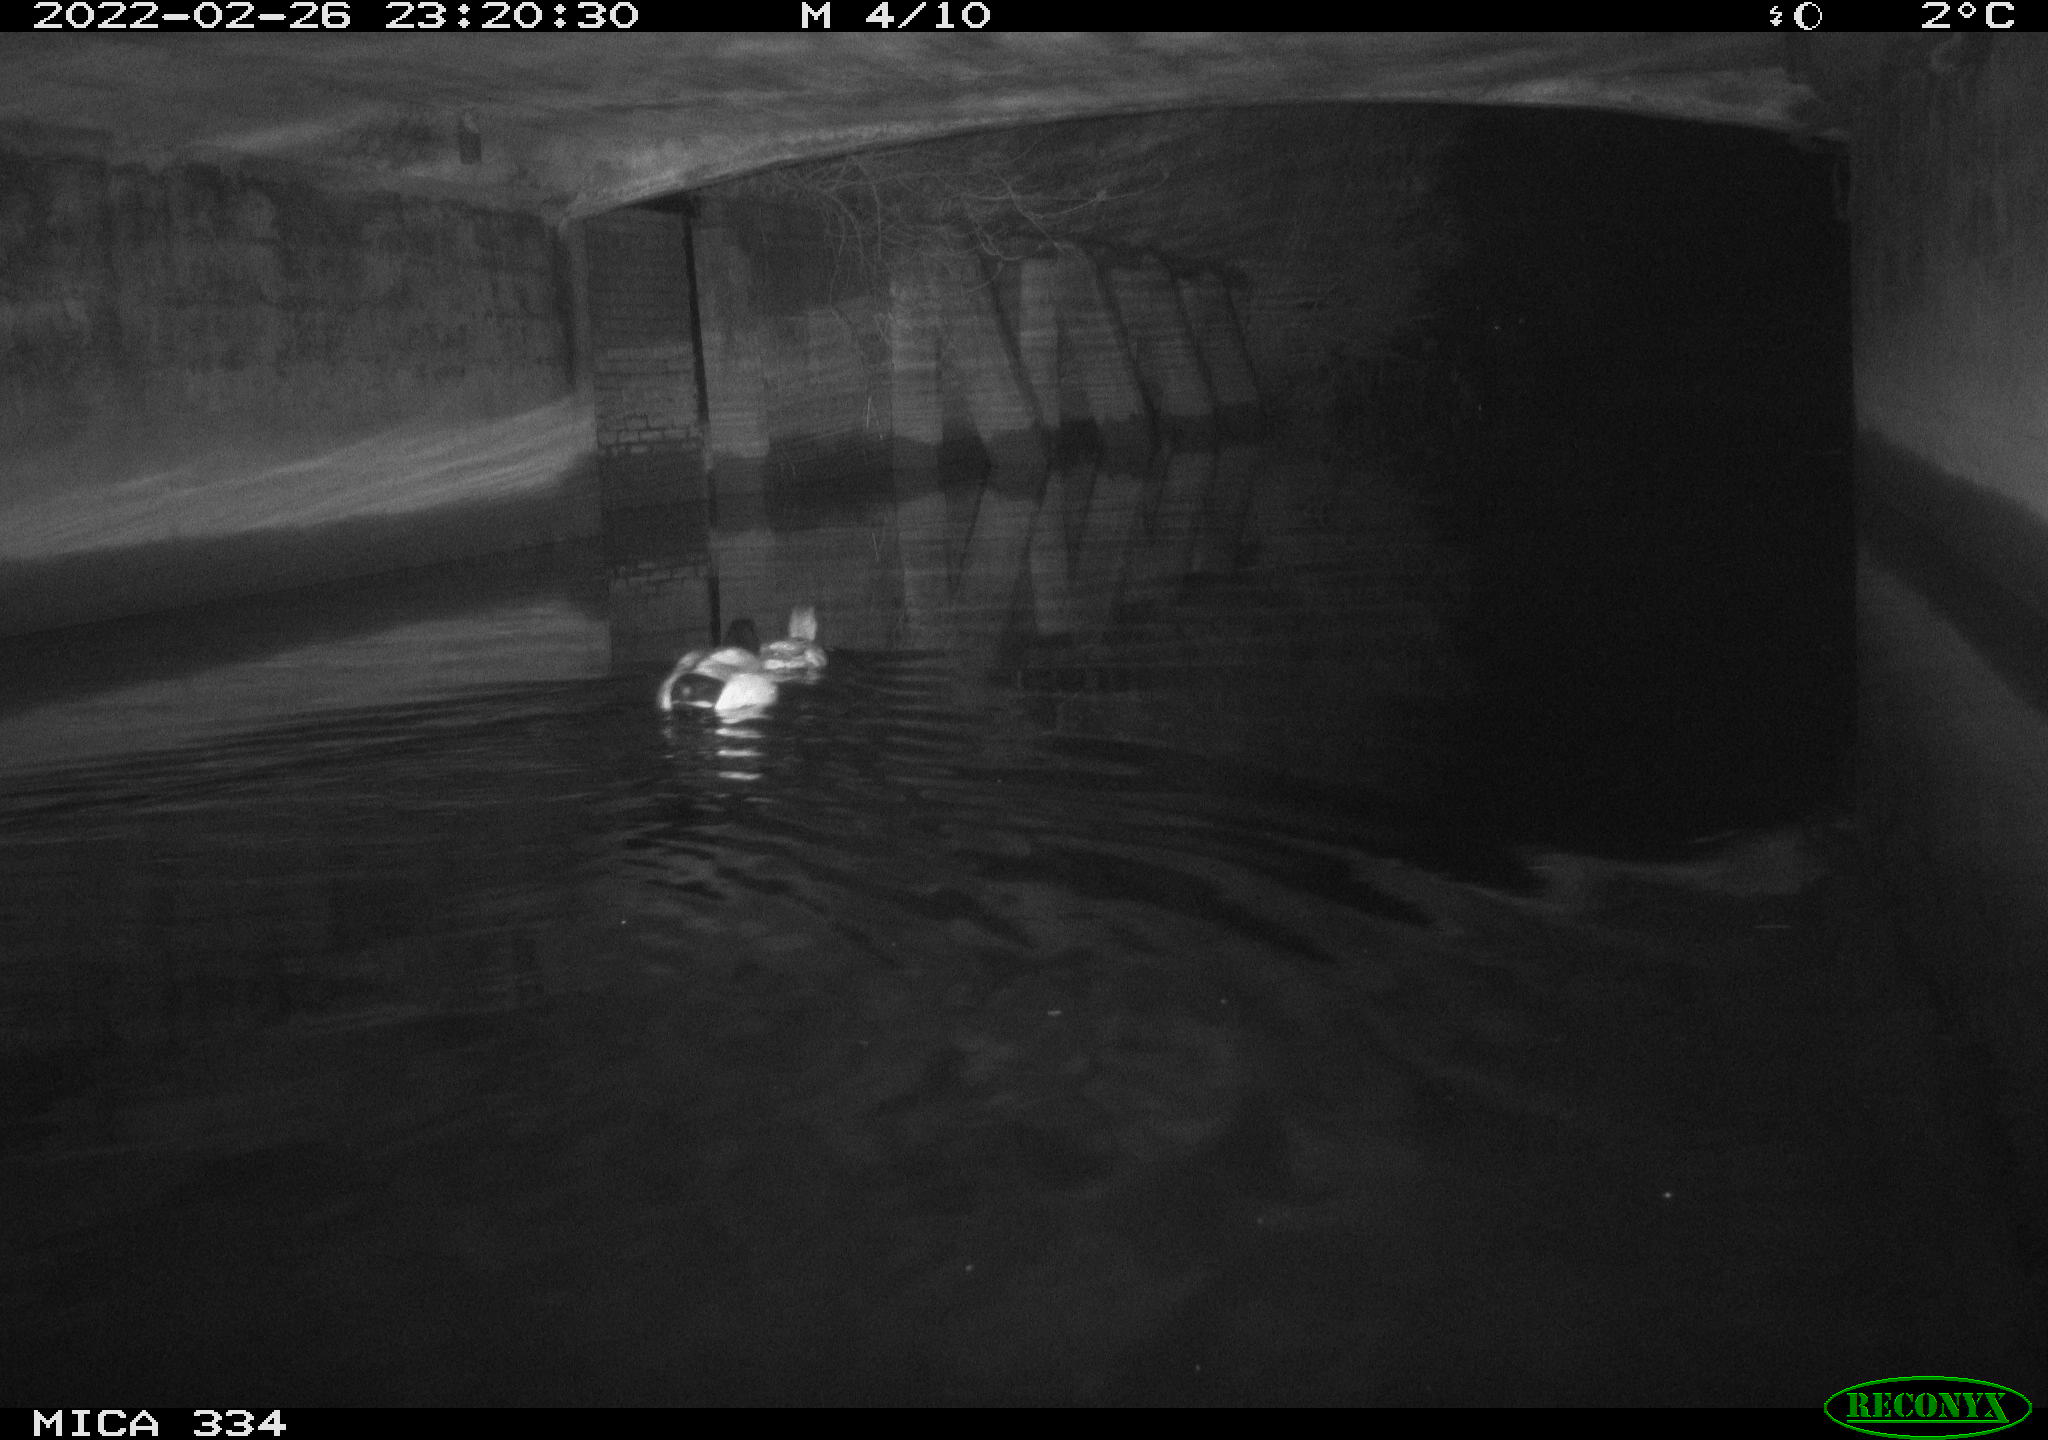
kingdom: Animalia
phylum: Chordata
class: Aves
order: Anseriformes
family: Anatidae
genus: Anas
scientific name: Anas platyrhynchos
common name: Mallard
